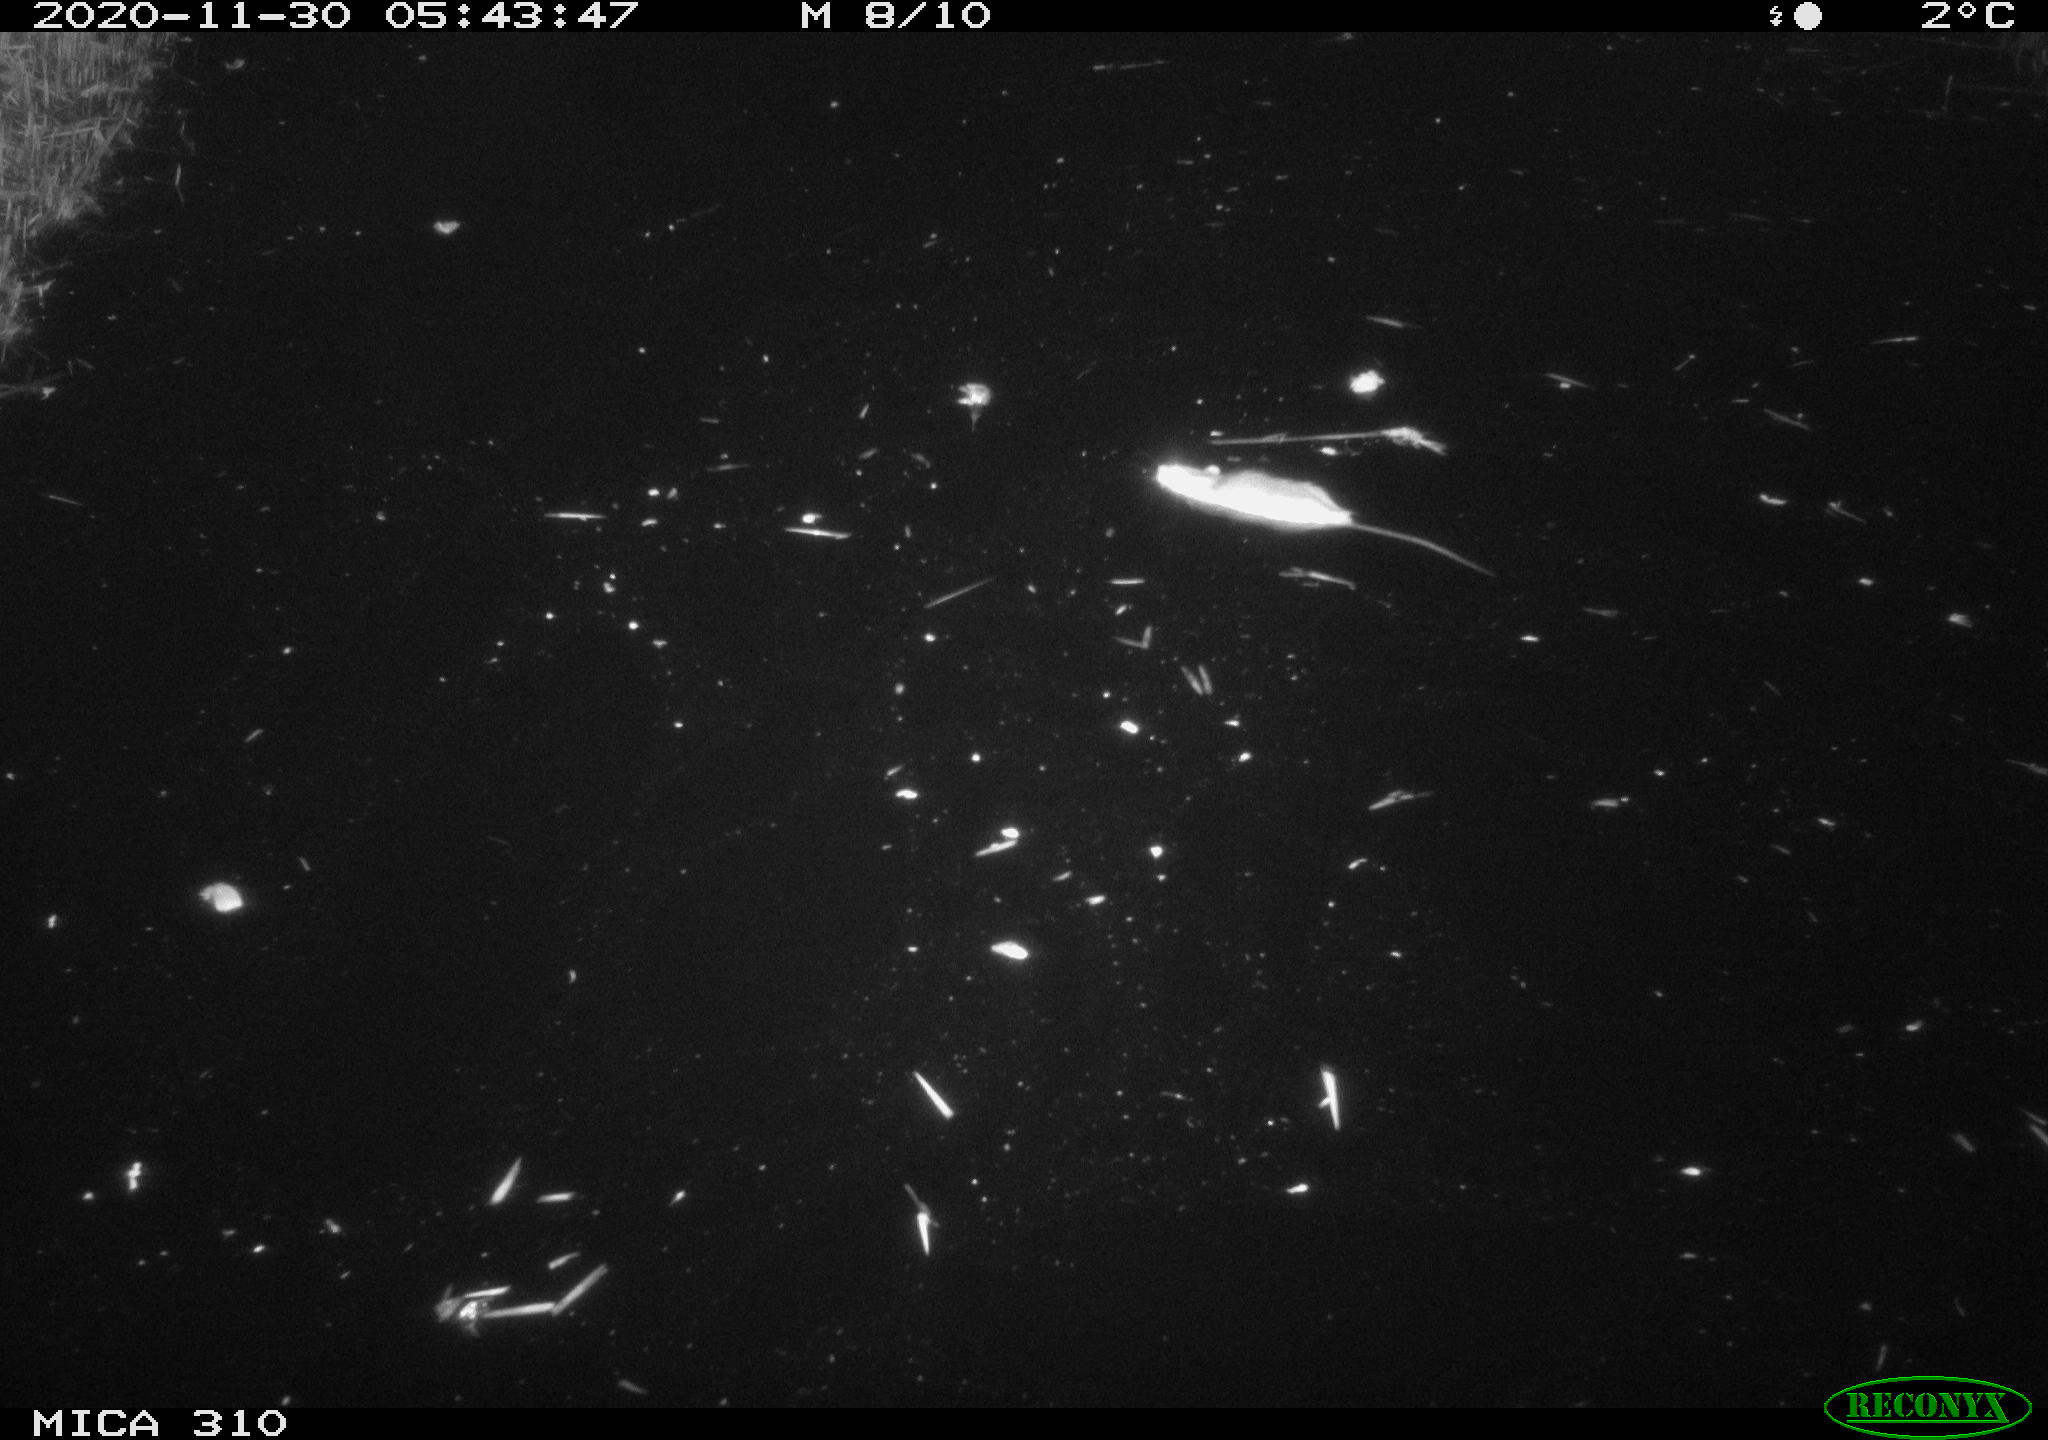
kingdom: Animalia
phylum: Chordata
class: Mammalia
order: Rodentia
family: Muridae
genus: Rattus
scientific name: Rattus norvegicus
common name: Brown rat
